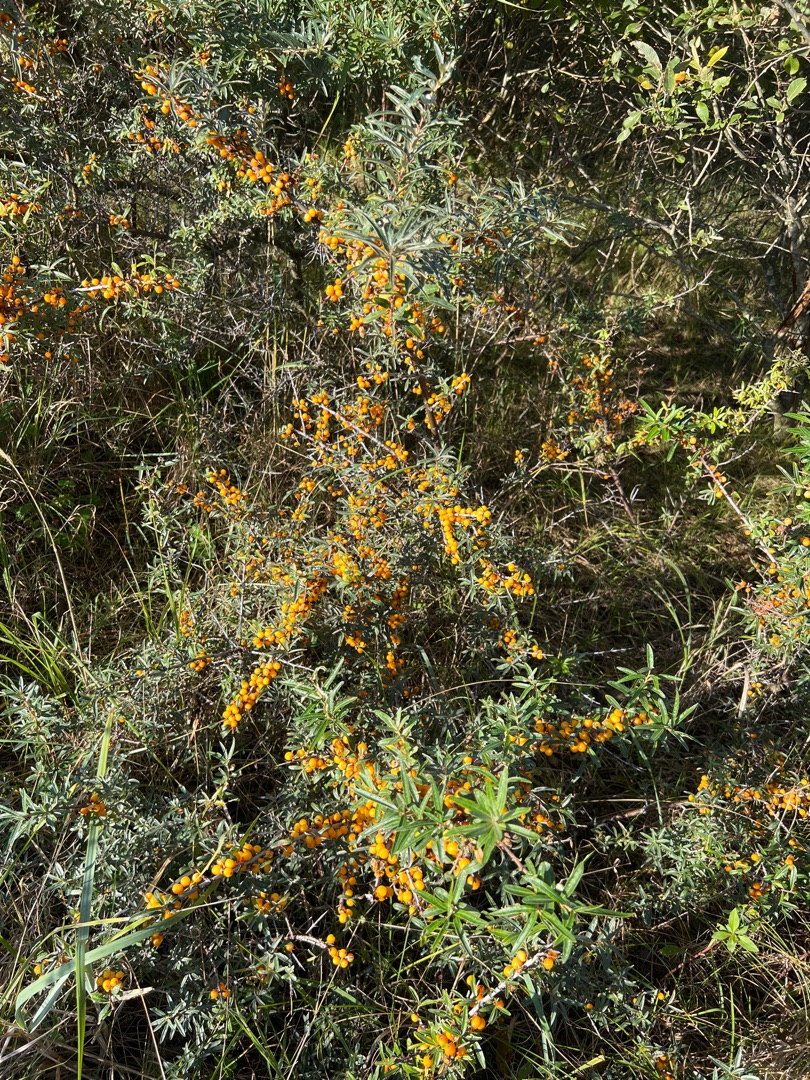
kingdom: Plantae
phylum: Tracheophyta
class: Magnoliopsida
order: Rosales
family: Elaeagnaceae
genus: Hippophae
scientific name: Hippophae rhamnoides
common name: Havtorn
